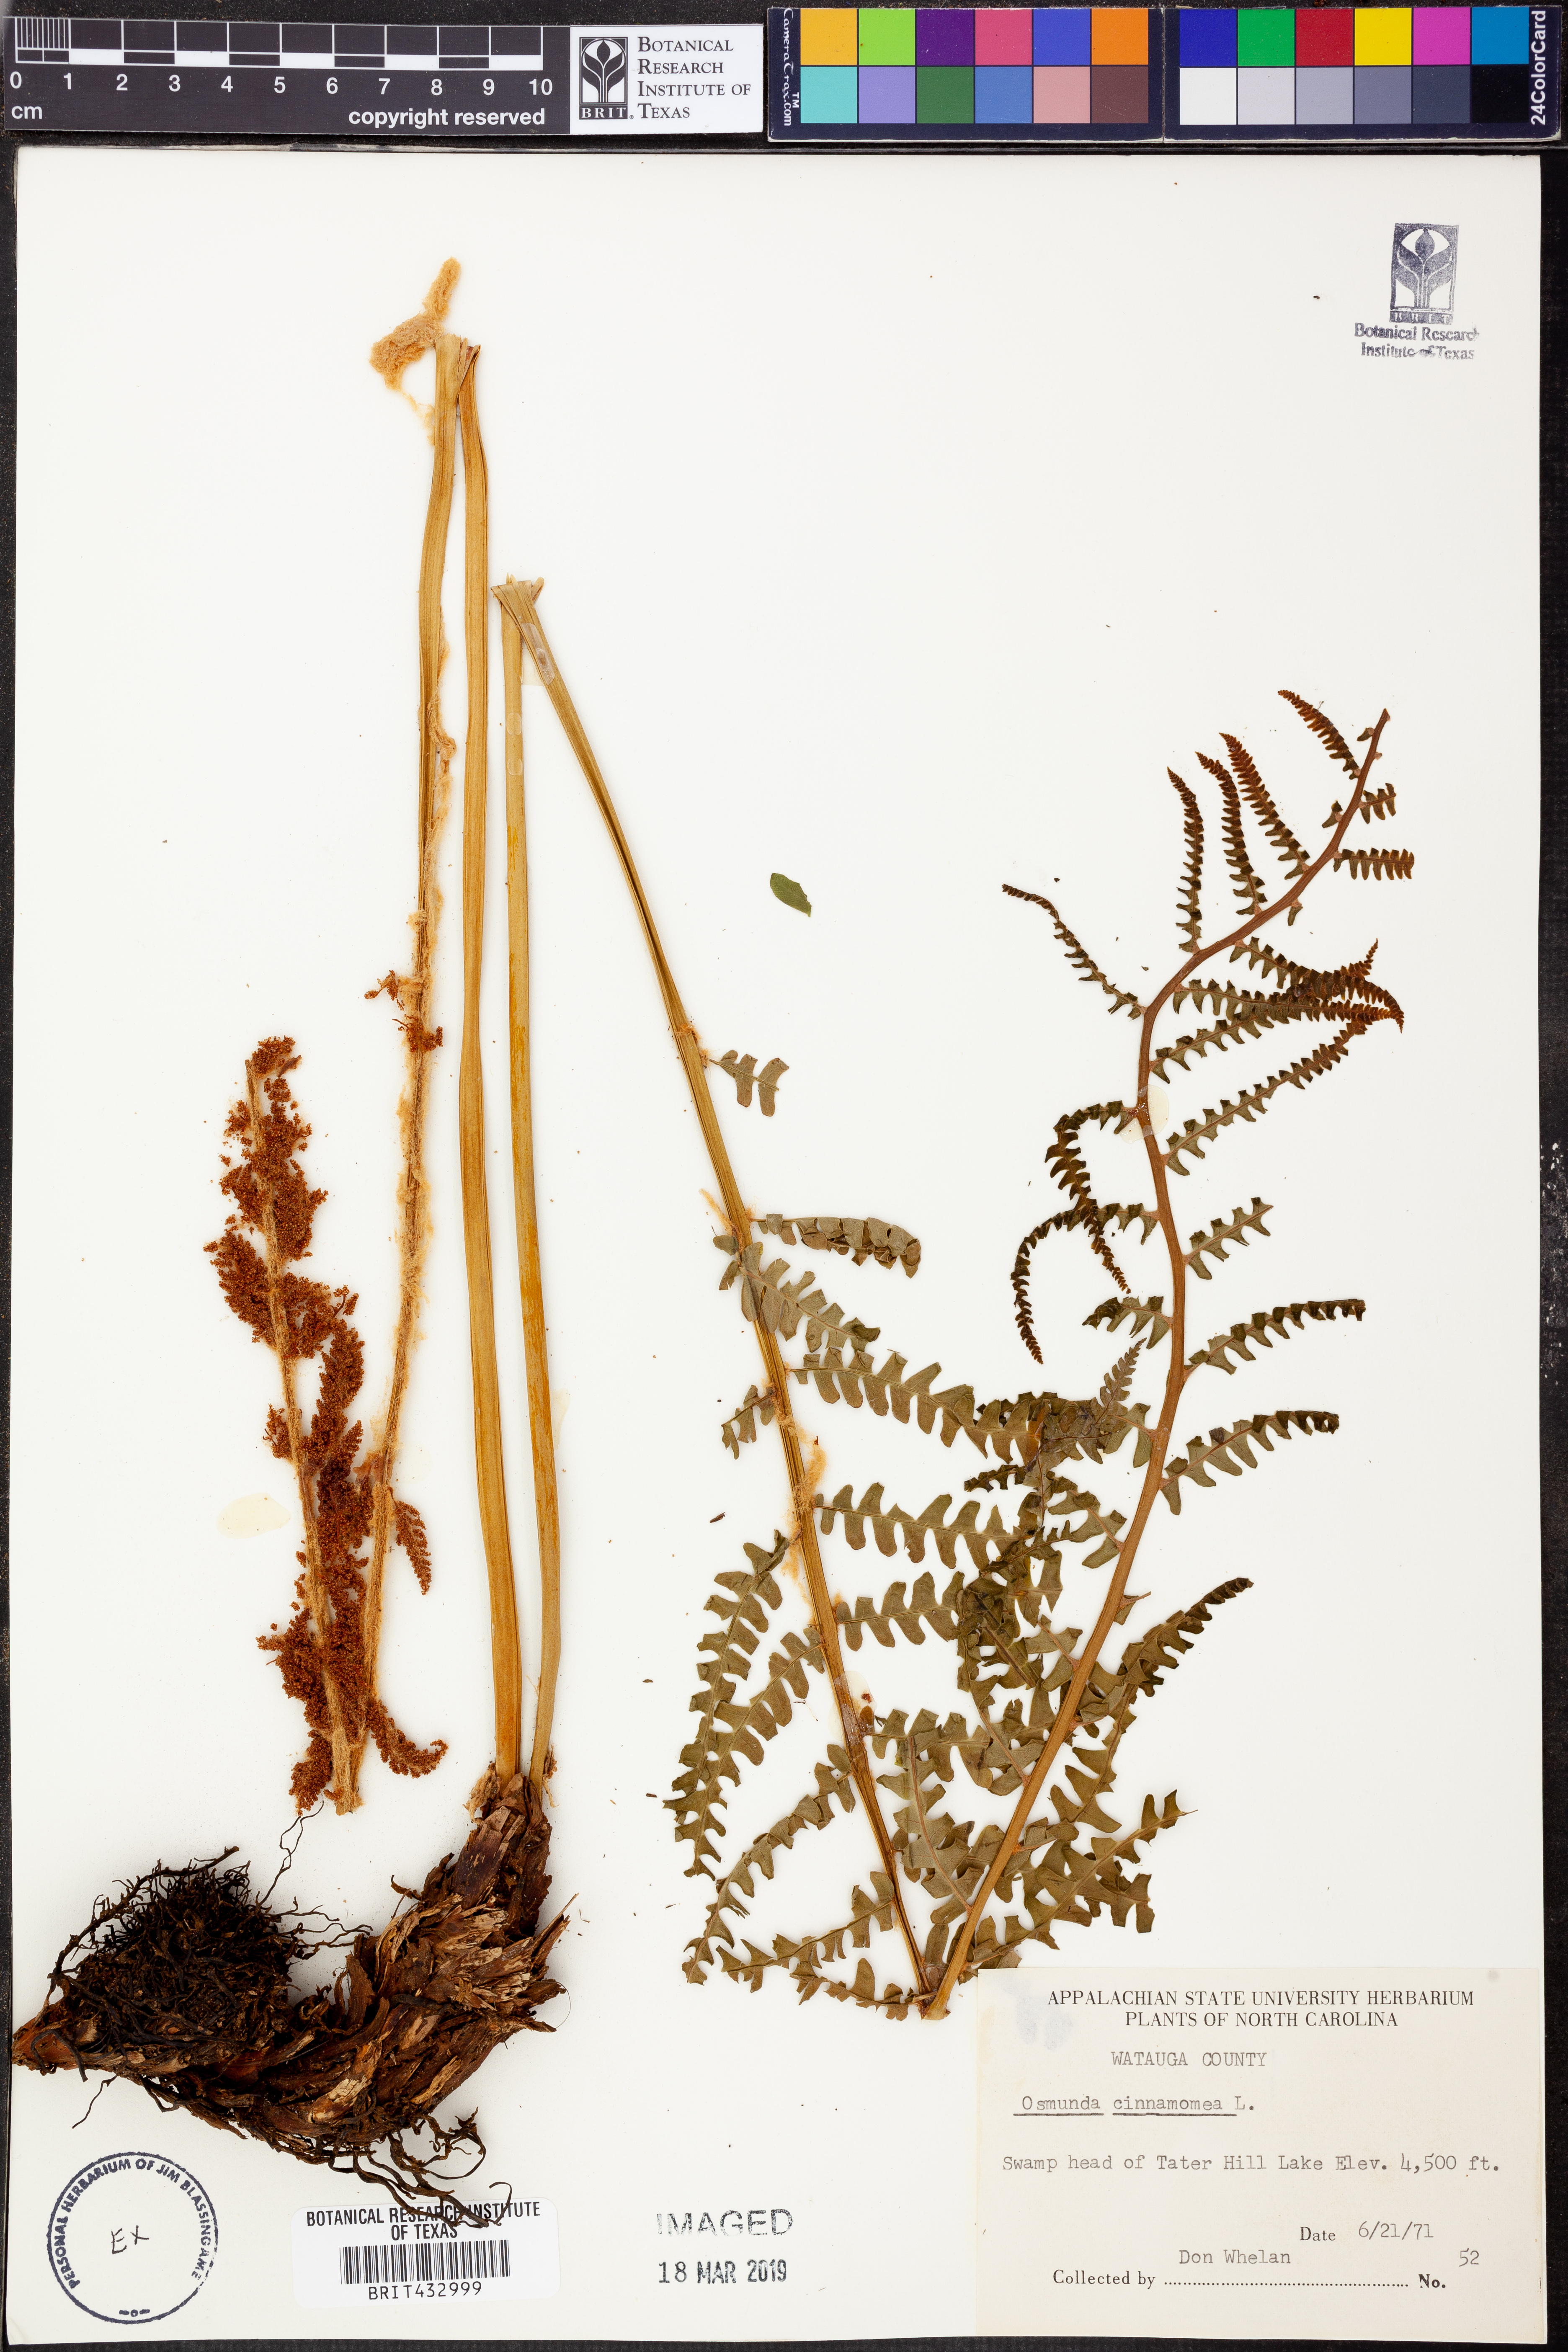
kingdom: Plantae
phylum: Tracheophyta
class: Polypodiopsida
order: Osmundales
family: Osmundaceae
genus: Osmundastrum
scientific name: Osmundastrum cinnamomeum
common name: Cinnamon fern
